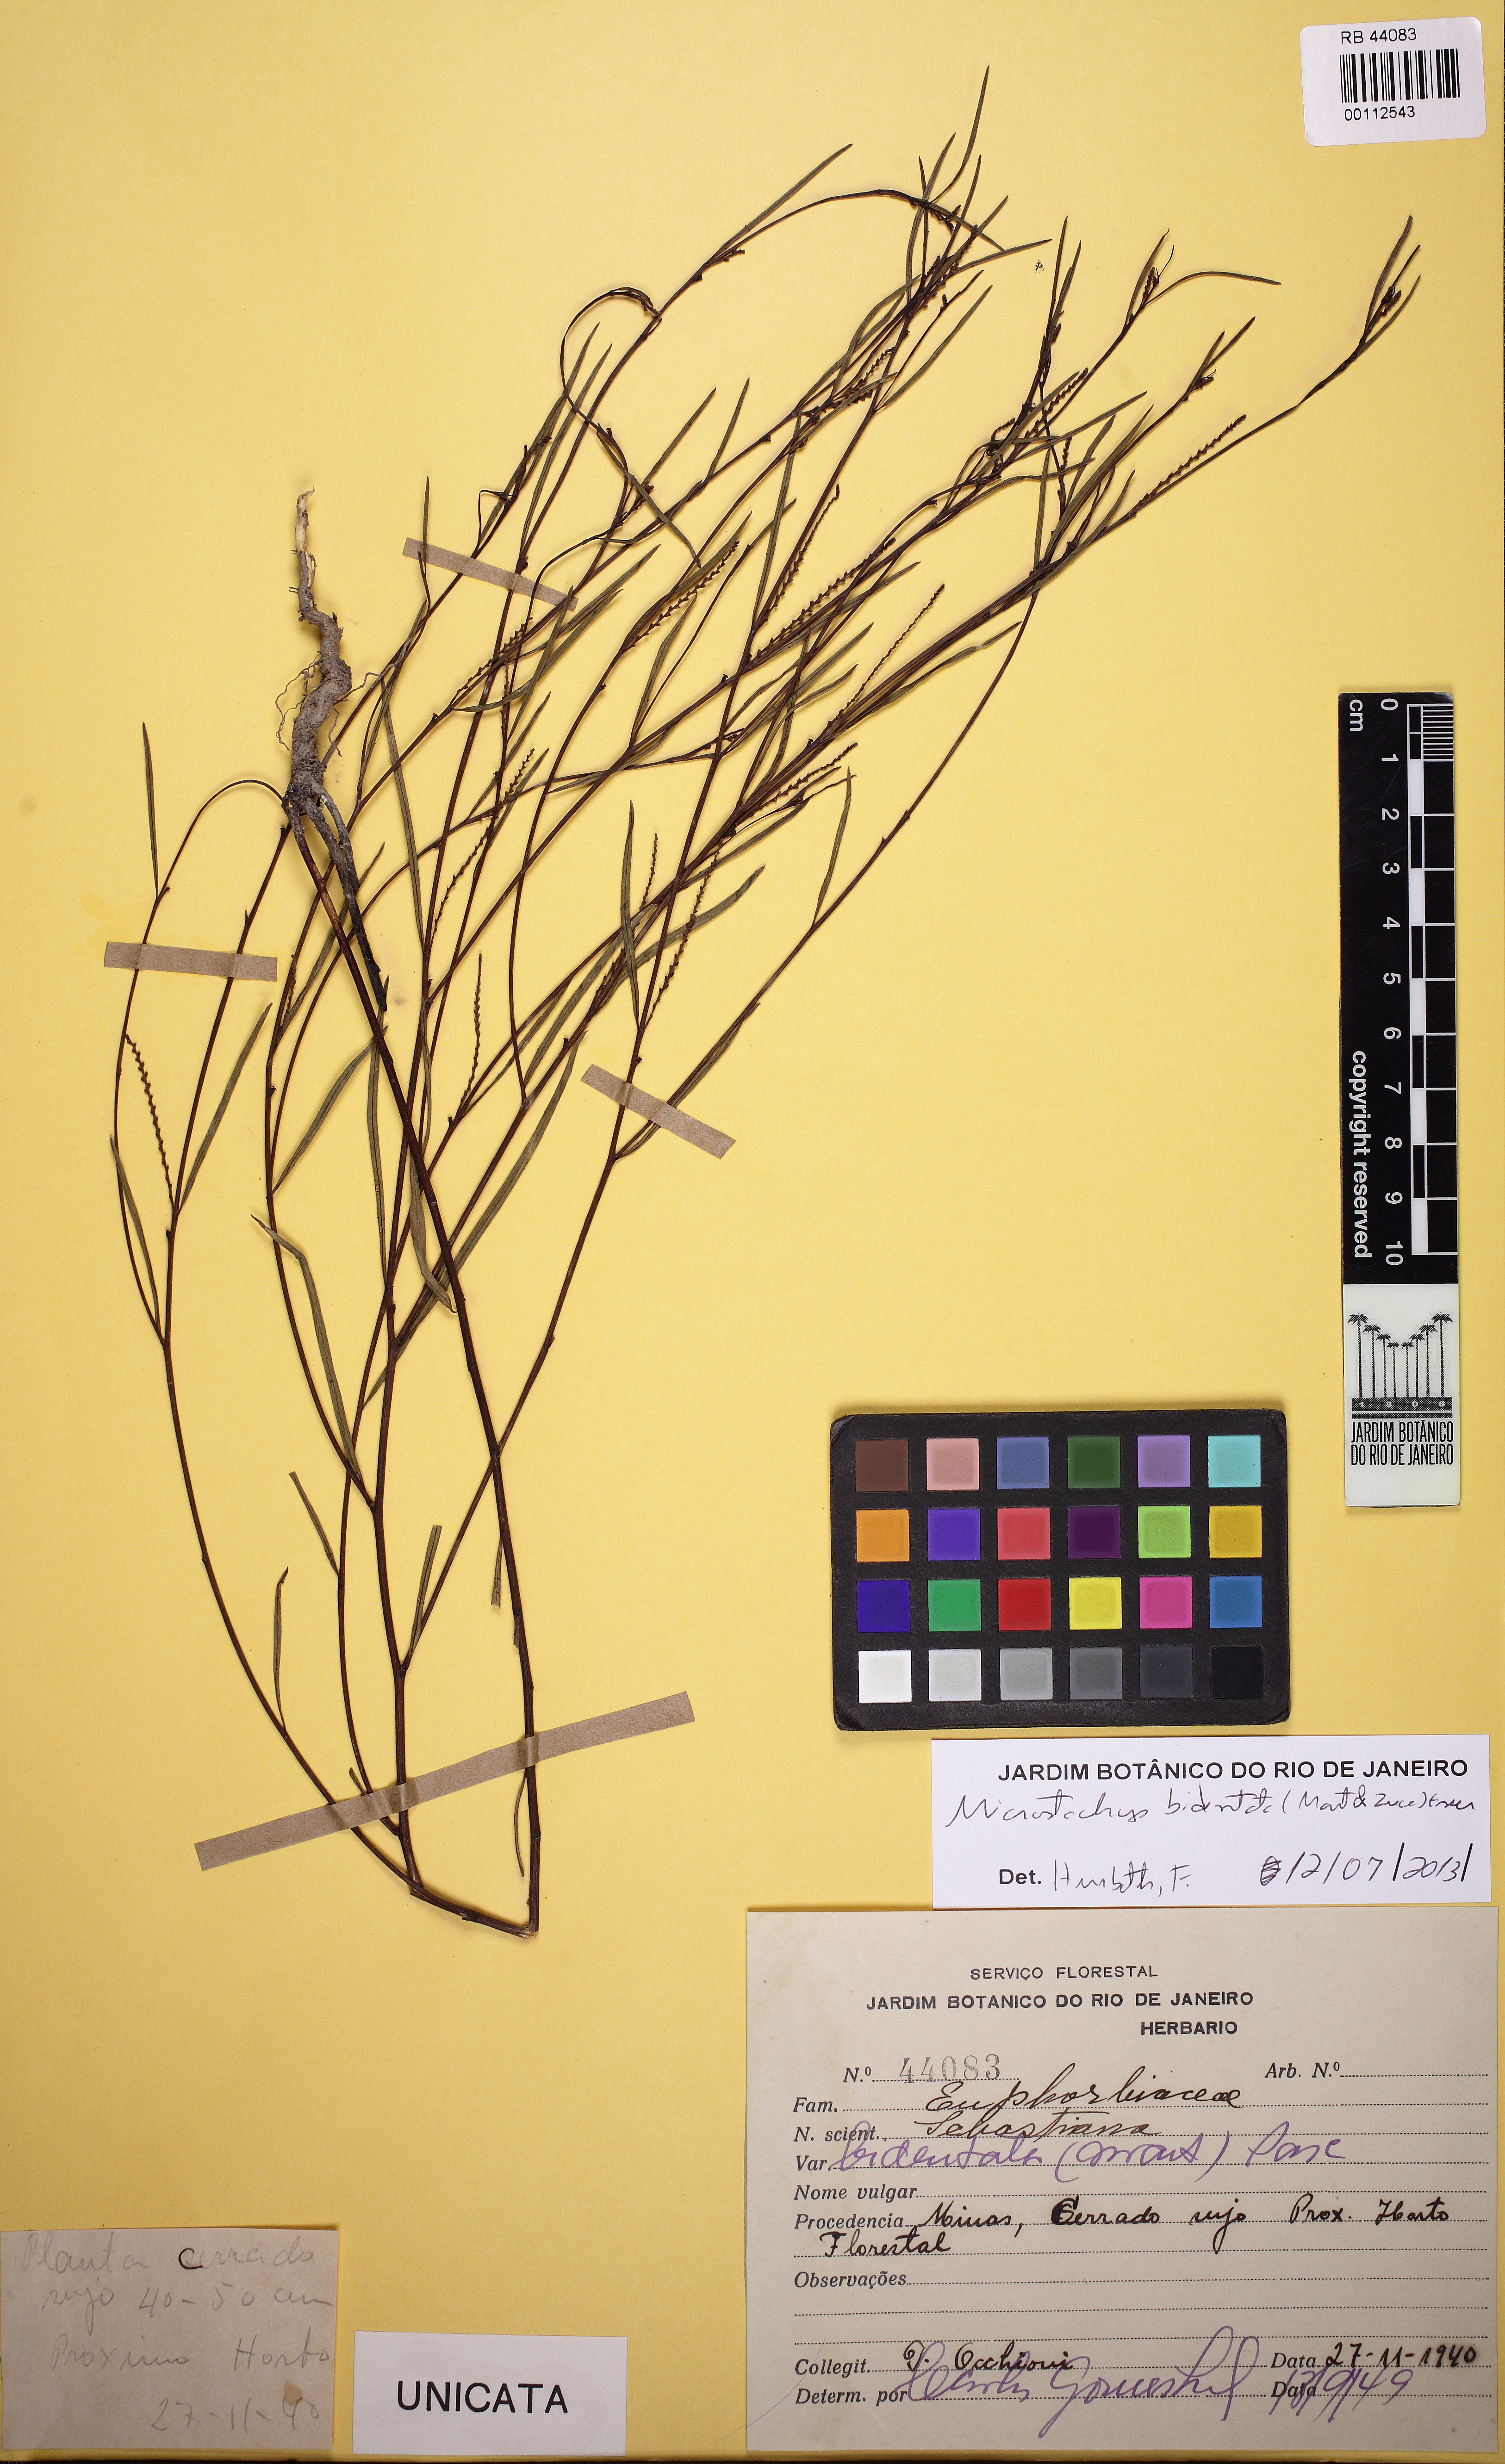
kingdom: Plantae
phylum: Tracheophyta
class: Magnoliopsida
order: Malpighiales
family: Euphorbiaceae
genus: Microstachys
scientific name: Microstachys bidentata
